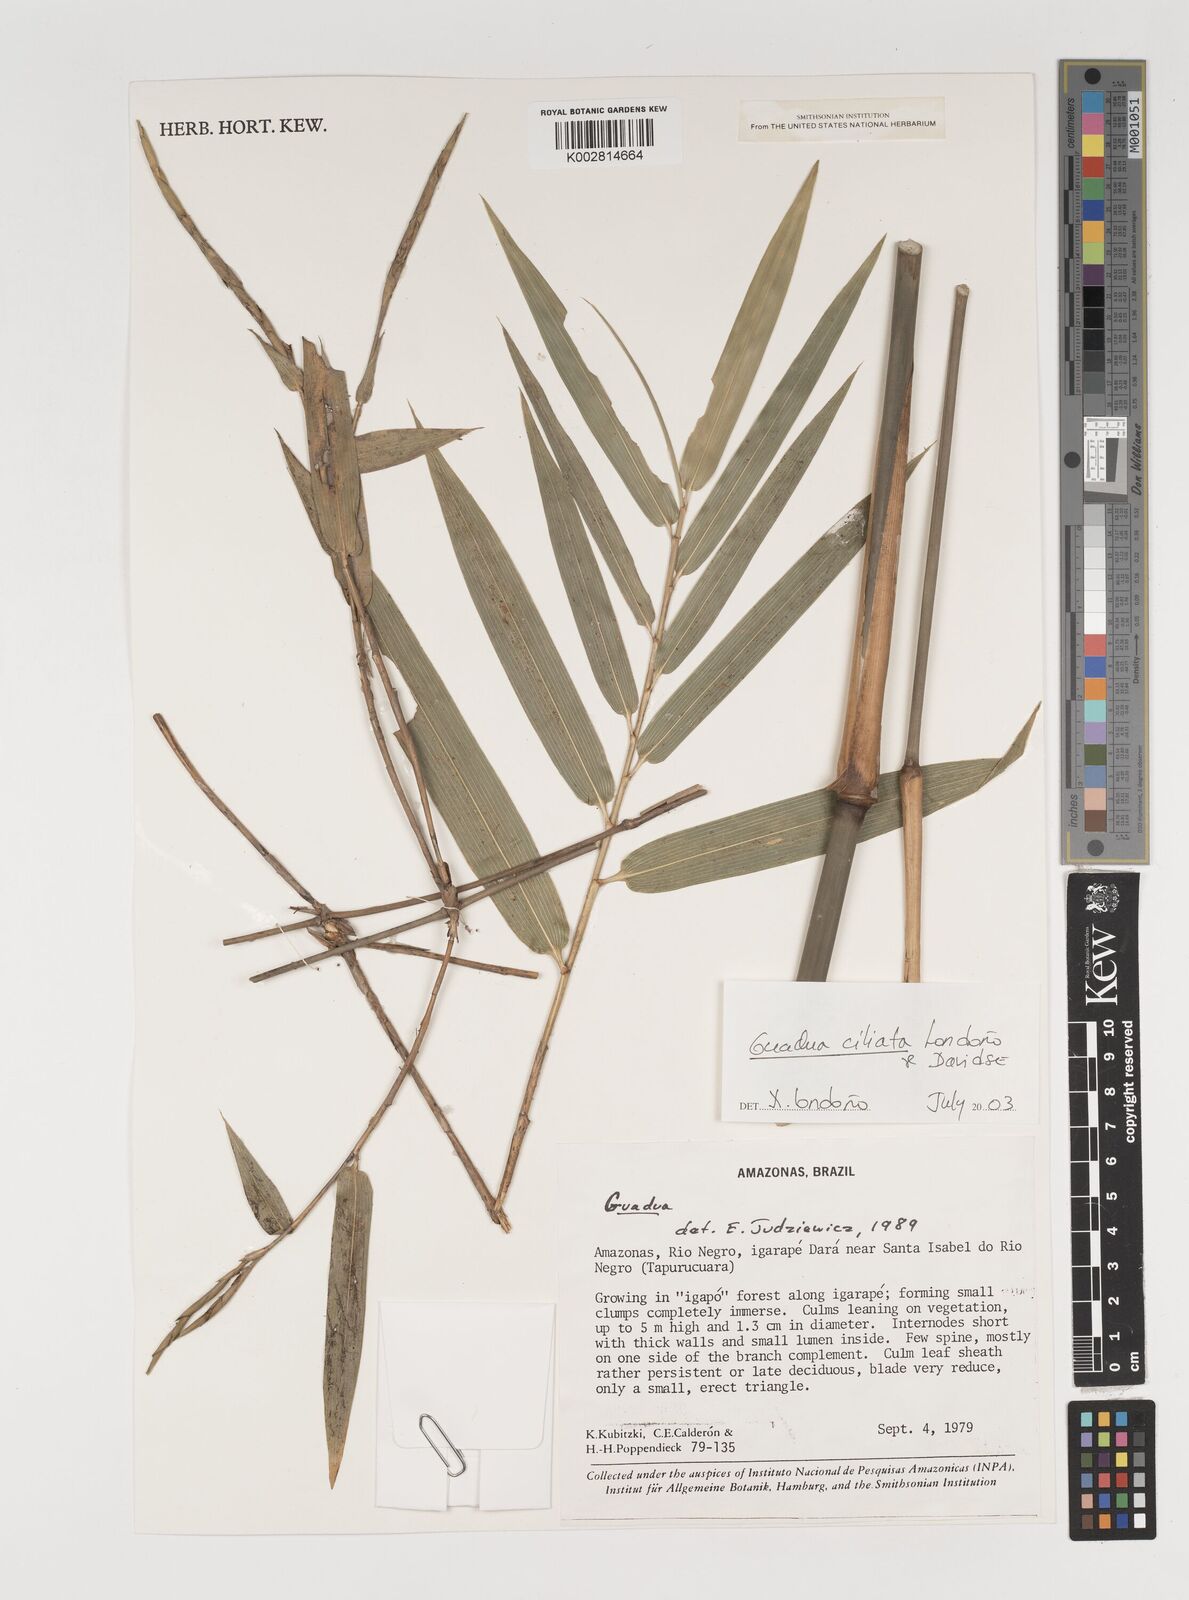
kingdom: Plantae
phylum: Tracheophyta
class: Liliopsida
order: Poales
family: Poaceae
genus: Guadua
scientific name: Guadua ciliata
